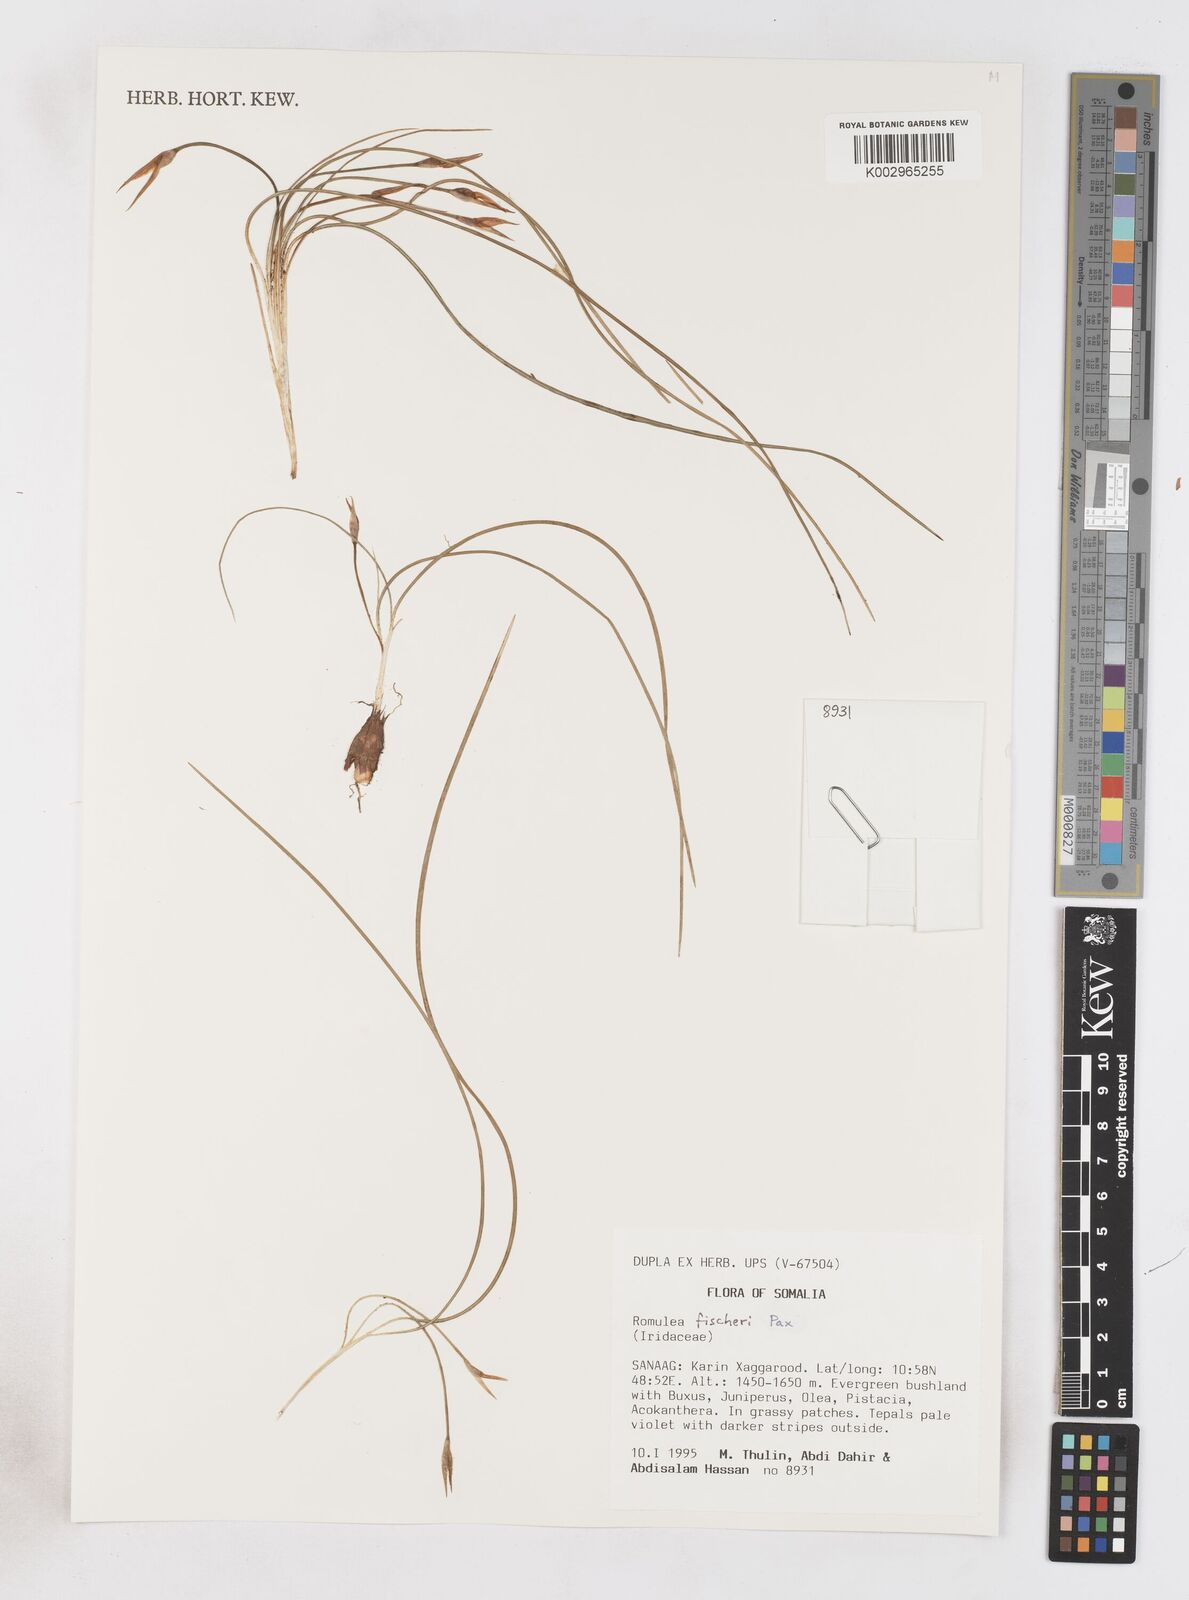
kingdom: Plantae
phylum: Tracheophyta
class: Liliopsida
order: Asparagales
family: Iridaceae
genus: Romulea
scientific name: Romulea fischeri
